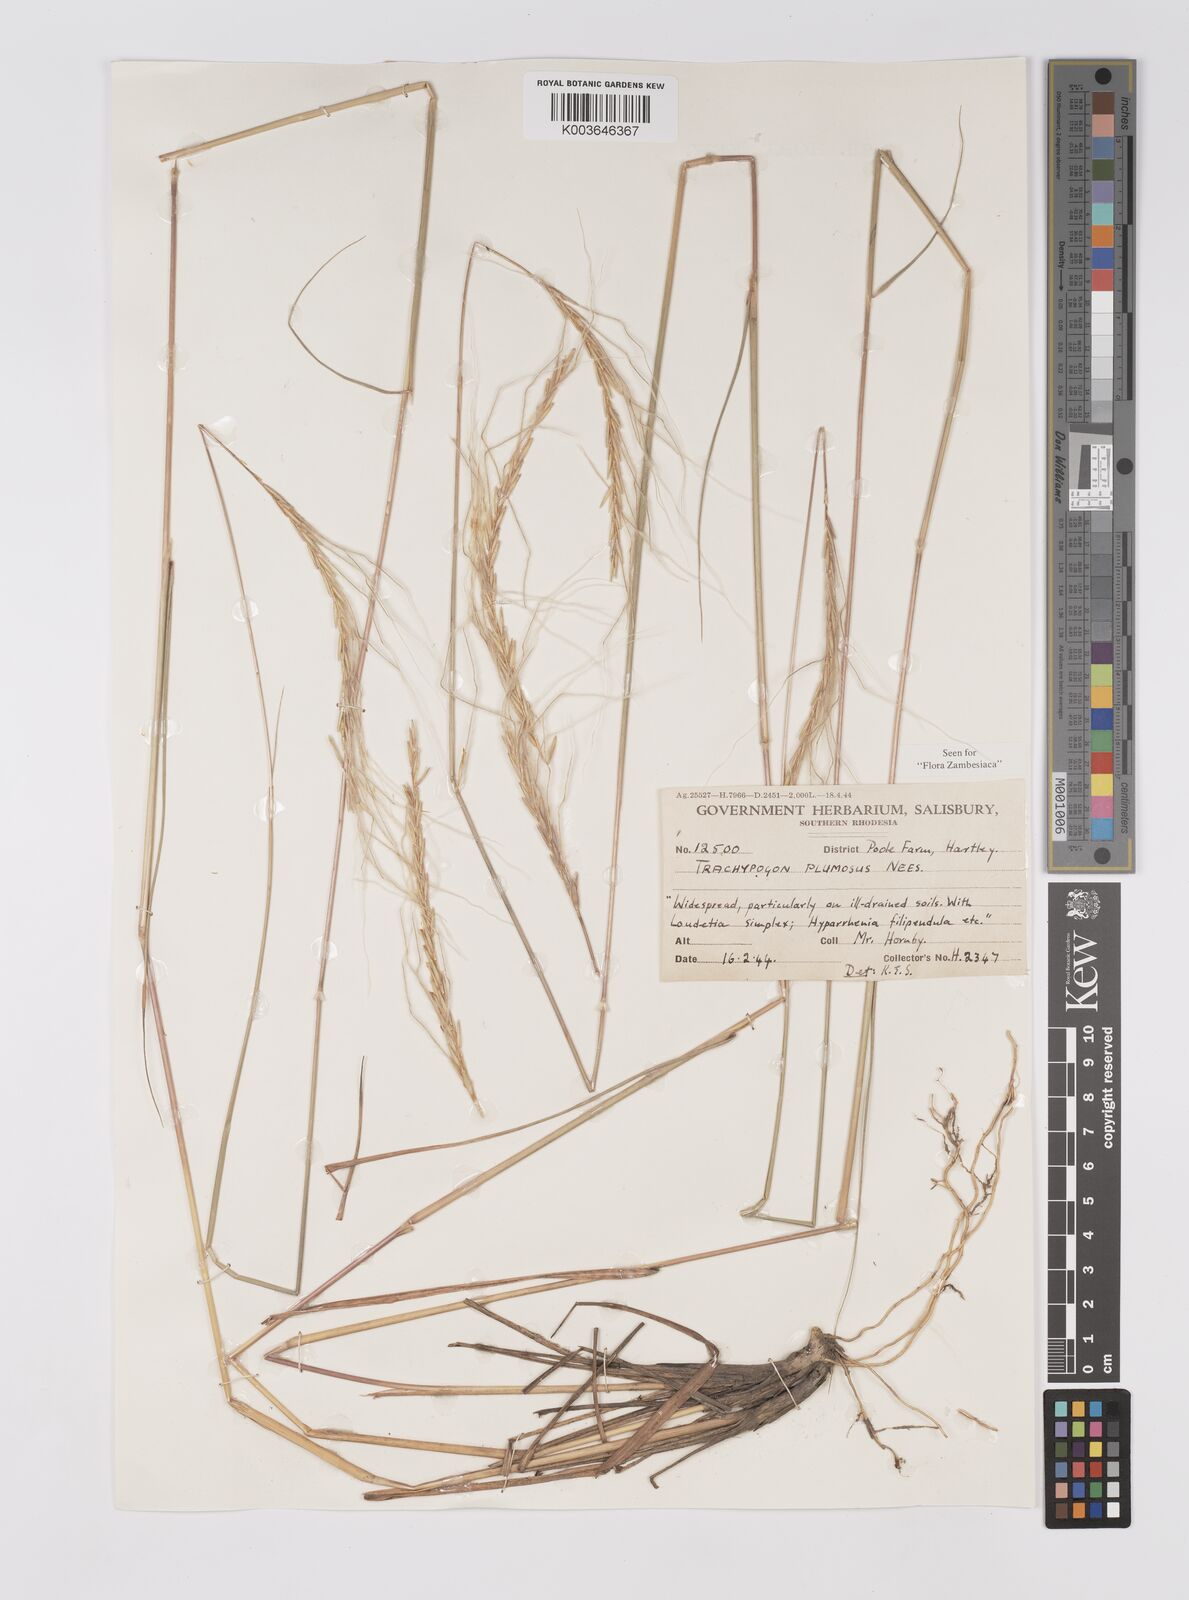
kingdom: Plantae
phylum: Tracheophyta
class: Liliopsida
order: Poales
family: Poaceae
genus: Trachypogon
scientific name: Trachypogon spicatus
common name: Crinkle-awn
